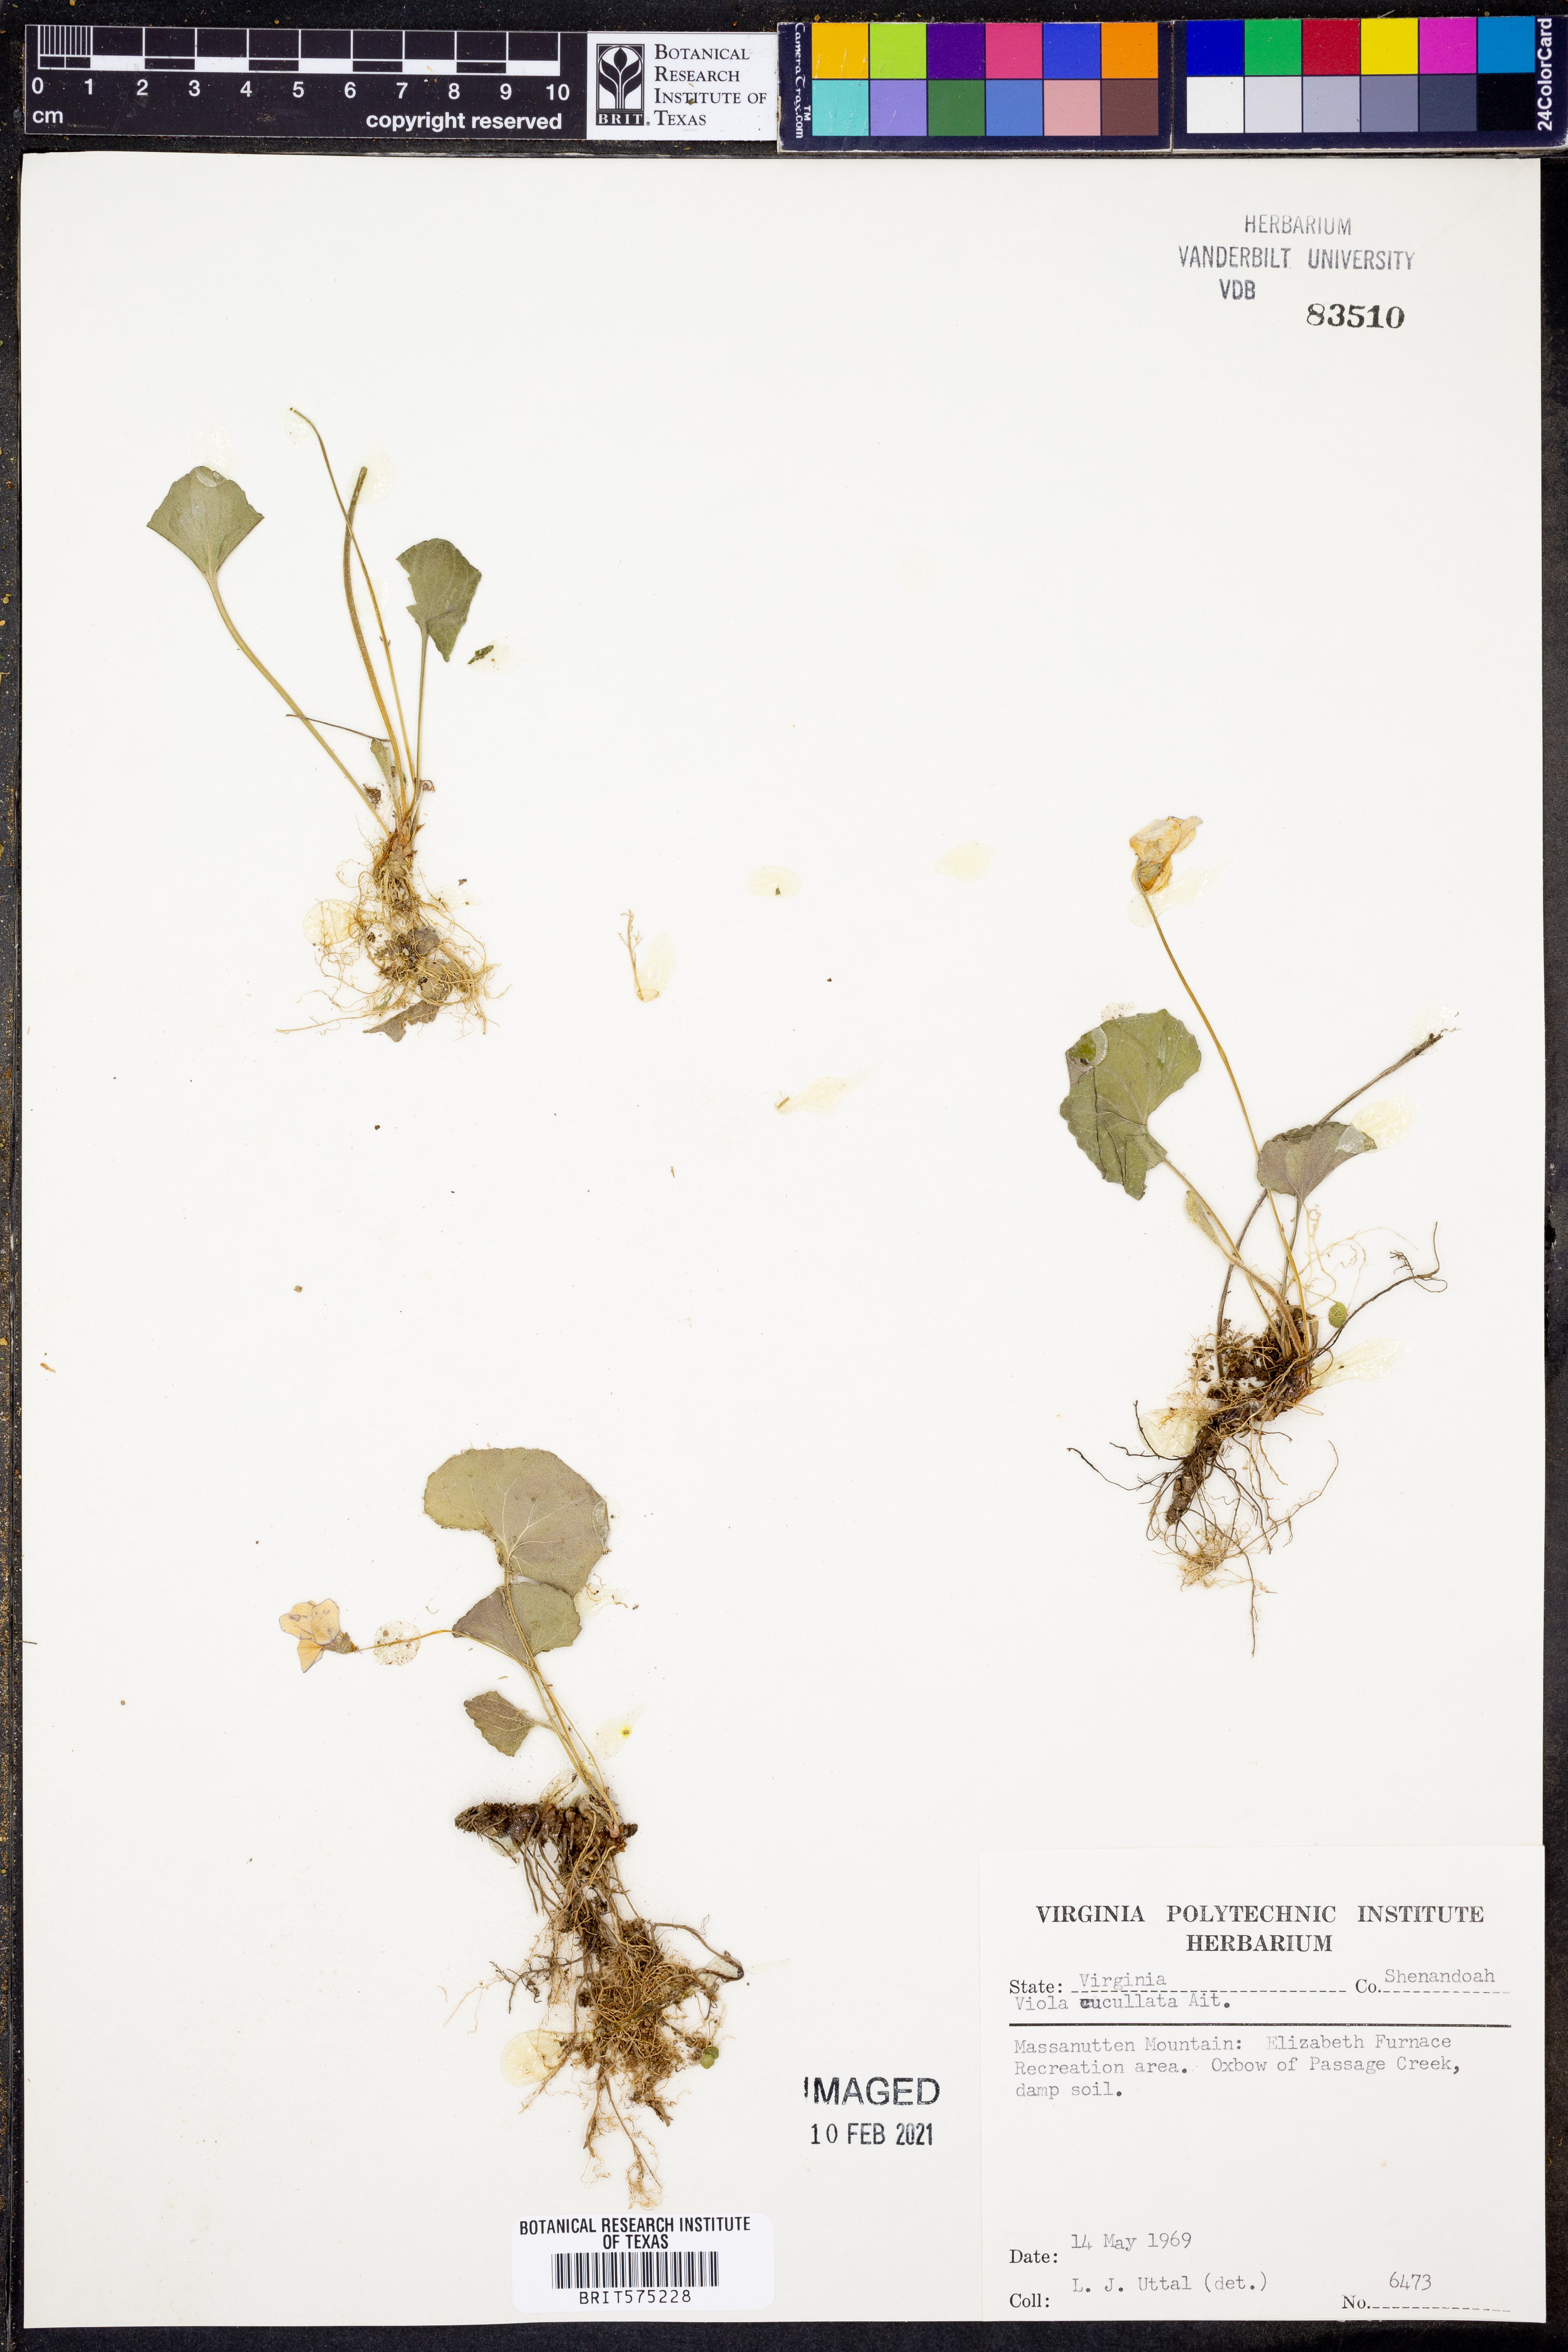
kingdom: Plantae
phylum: Tracheophyta
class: Magnoliopsida
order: Malpighiales
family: Violaceae
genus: Viola
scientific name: Viola cucullata
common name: Marsh blue violet
